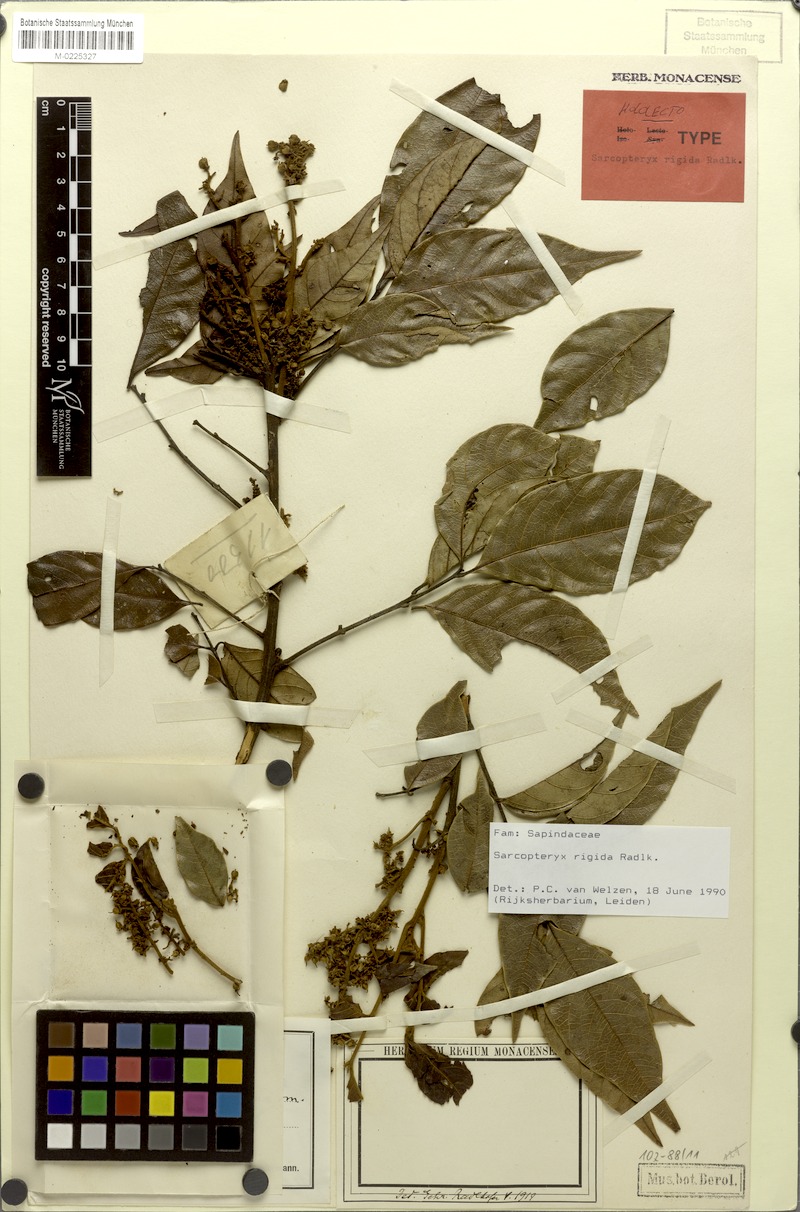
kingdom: Plantae
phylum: Tracheophyta
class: Magnoliopsida
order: Sapindales
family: Sapindaceae
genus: Sarcopteryx
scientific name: Sarcopteryx rigida
